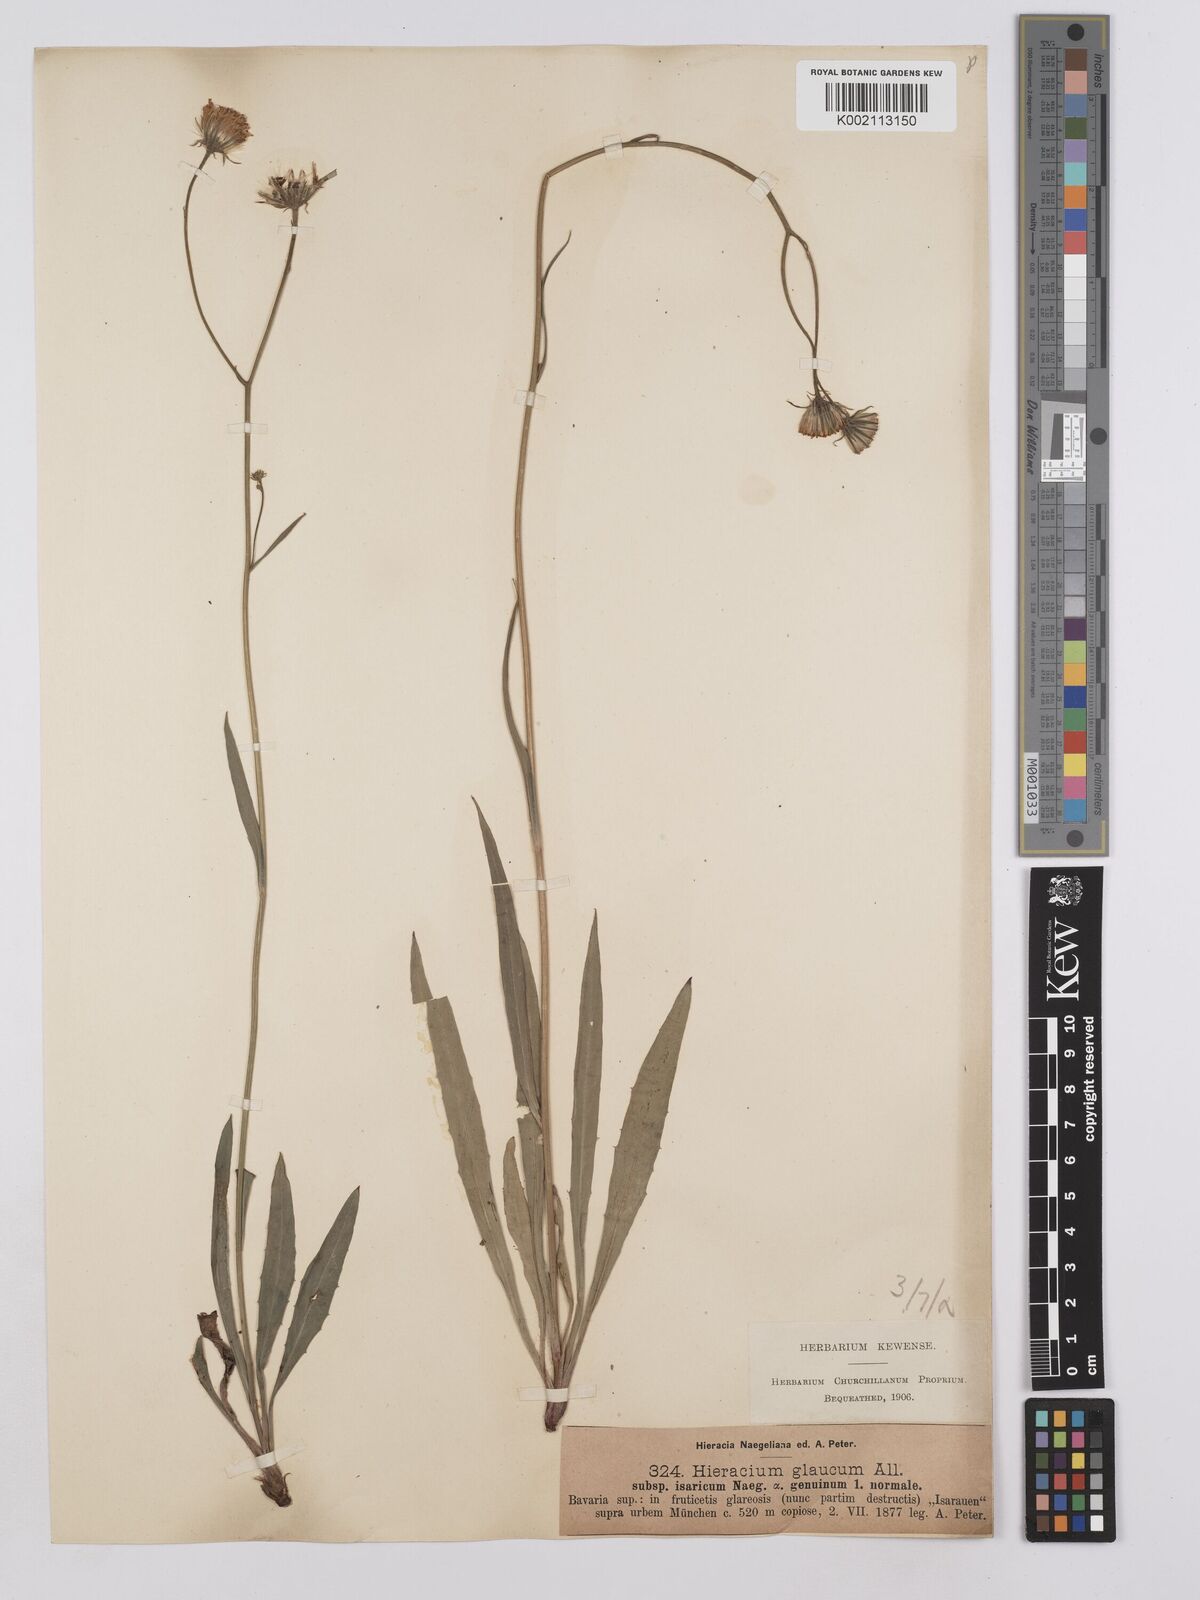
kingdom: Plantae
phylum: Tracheophyta
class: Magnoliopsida
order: Asterales
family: Asteraceae
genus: Hieracium
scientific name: Hieracium glaucum
